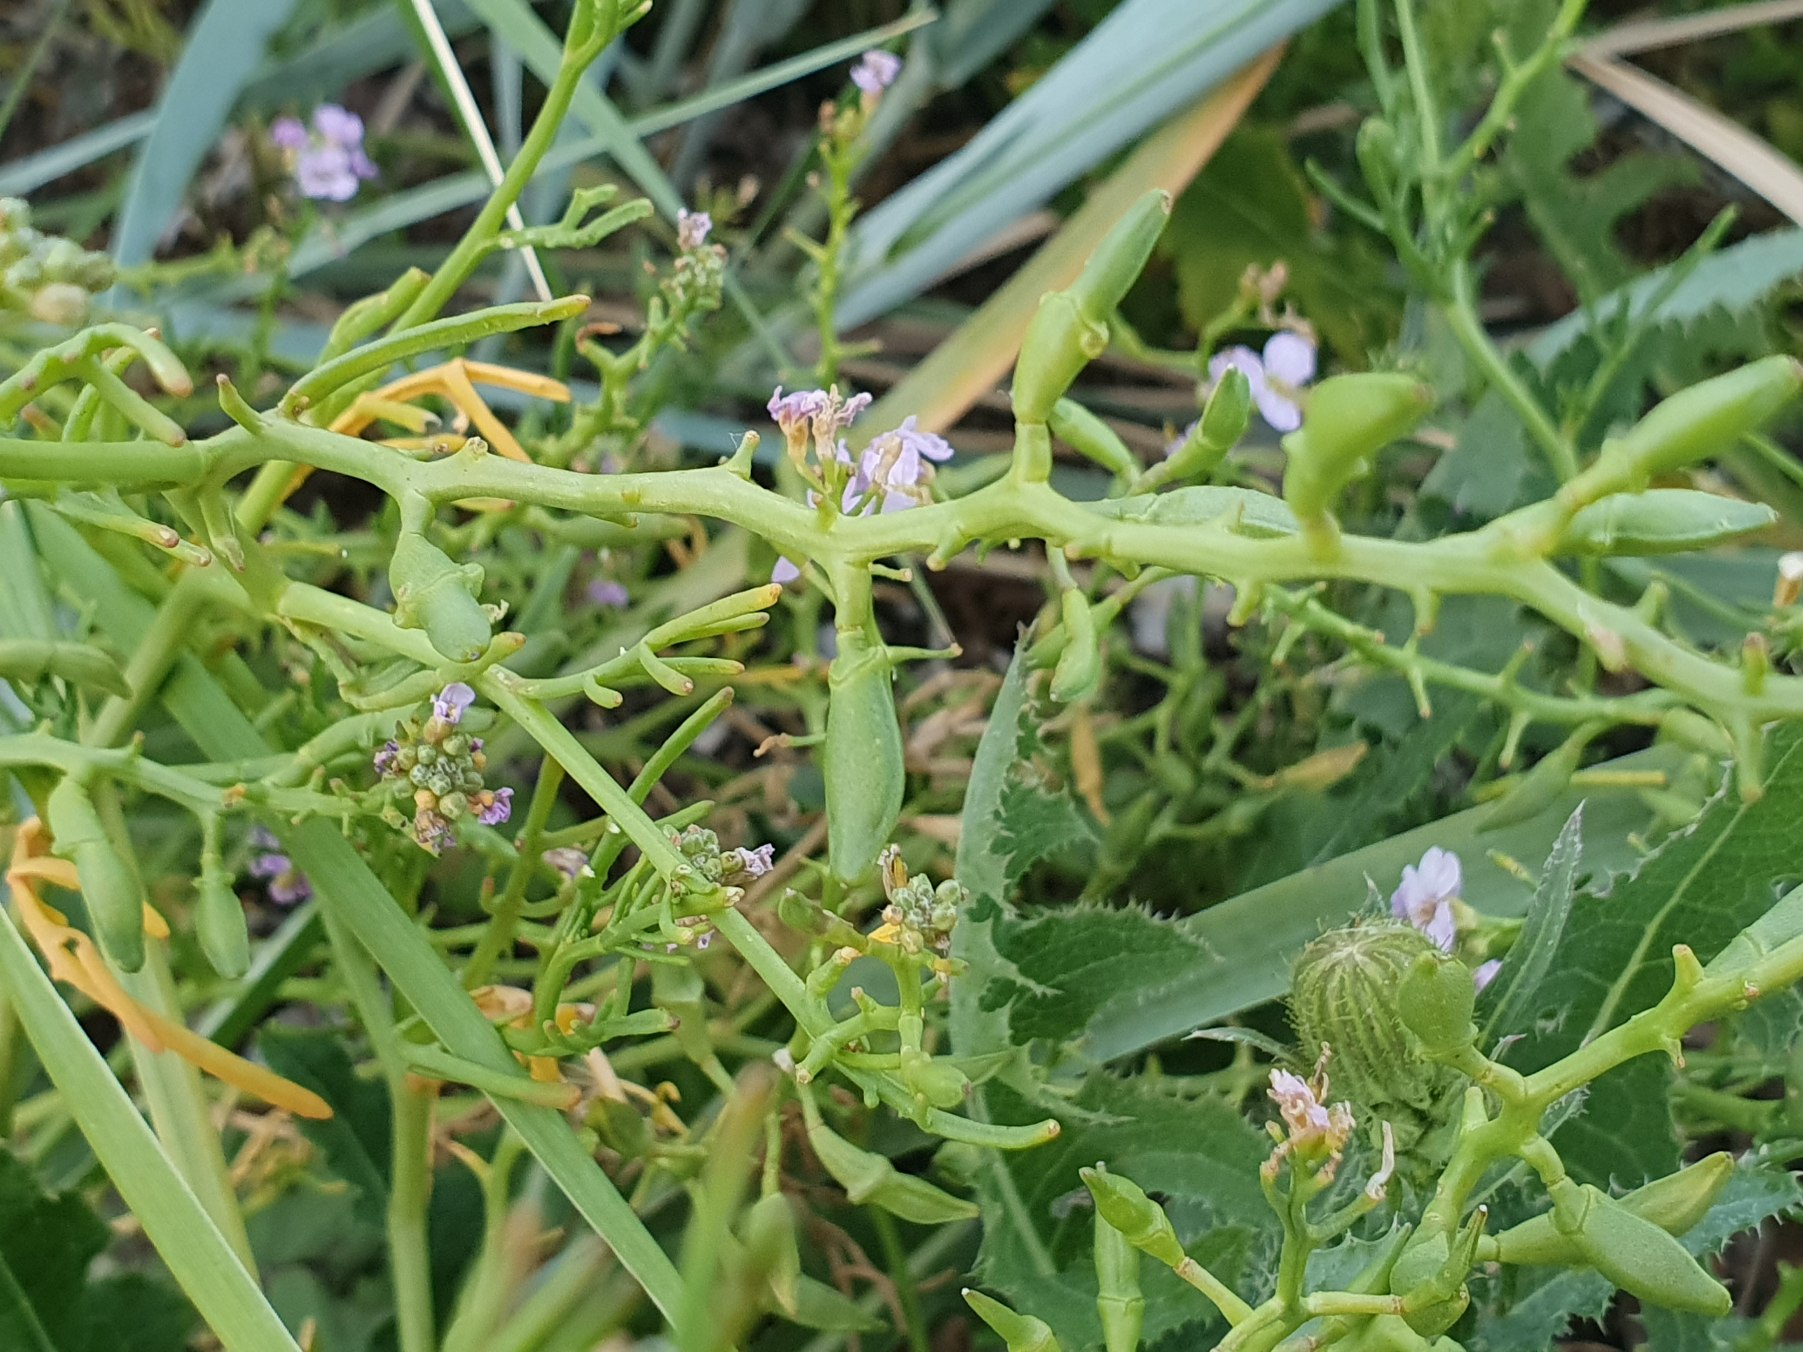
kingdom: Plantae
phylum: Tracheophyta
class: Magnoliopsida
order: Brassicales
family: Brassicaceae
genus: Cakile
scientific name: Cakile maritima
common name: Strandsennep
